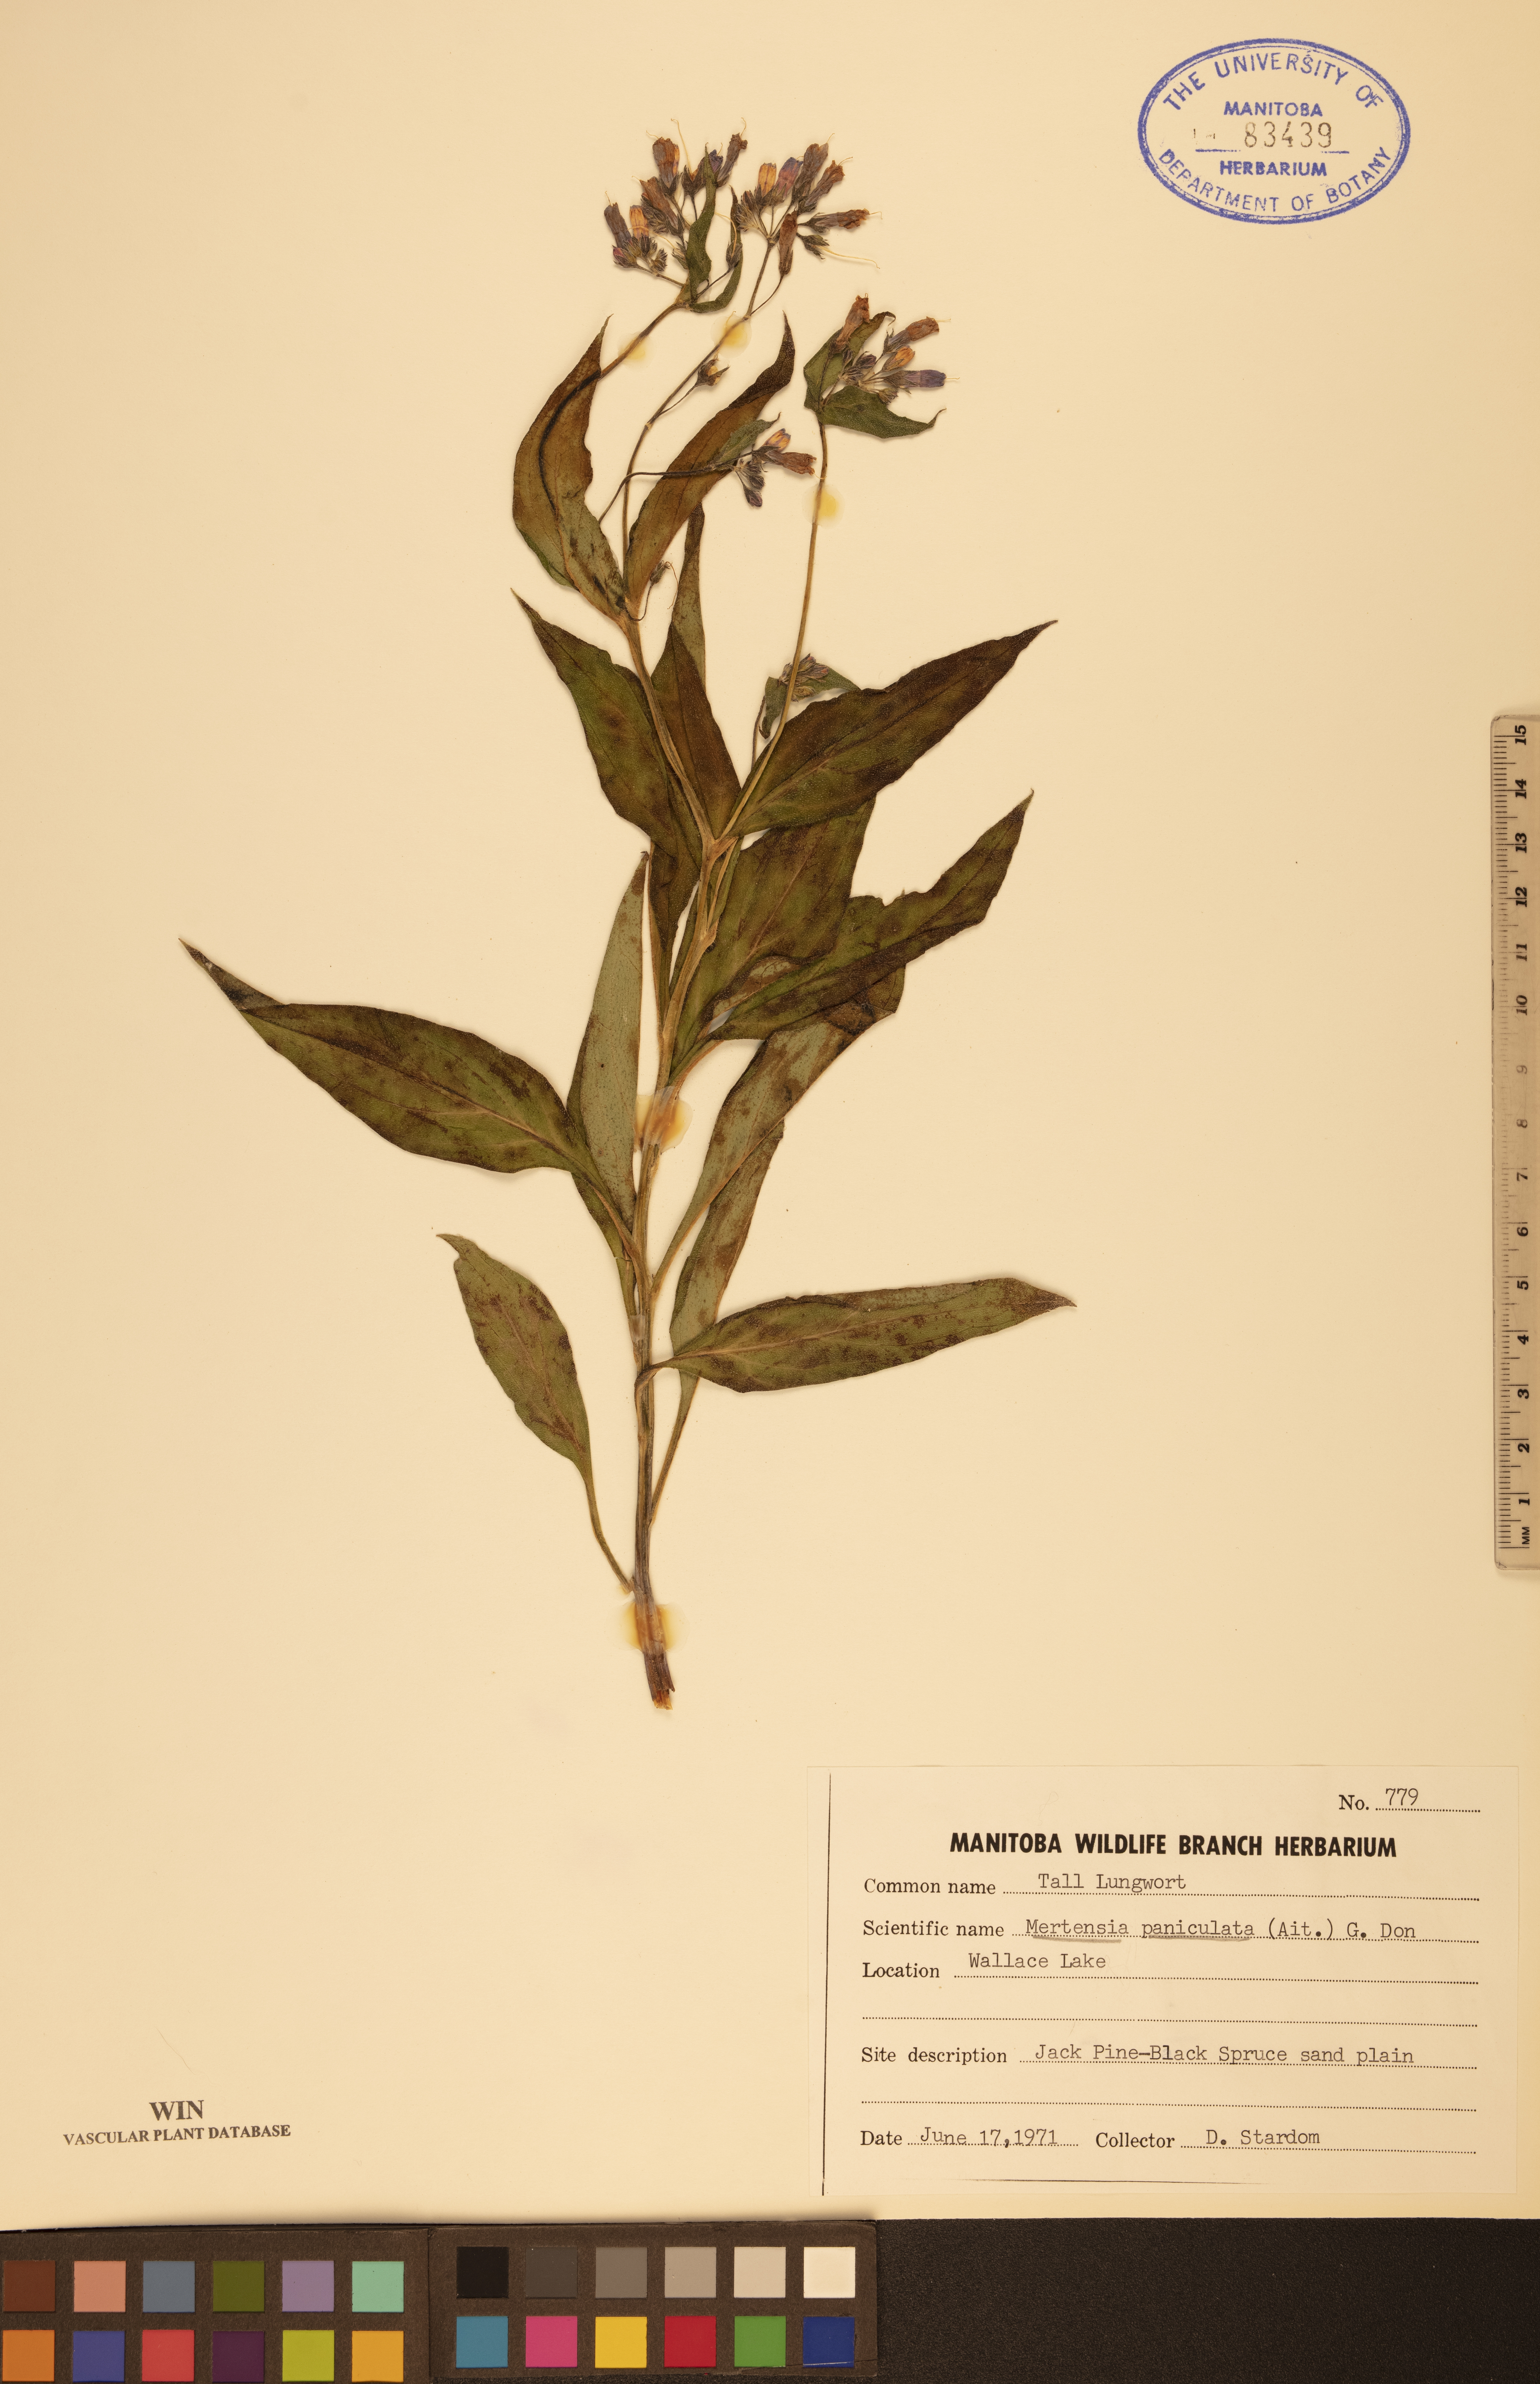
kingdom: Plantae
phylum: Tracheophyta
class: Magnoliopsida
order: Boraginales
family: Boraginaceae
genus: Mertensia
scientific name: Mertensia paniculata
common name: Panicled bluebells
